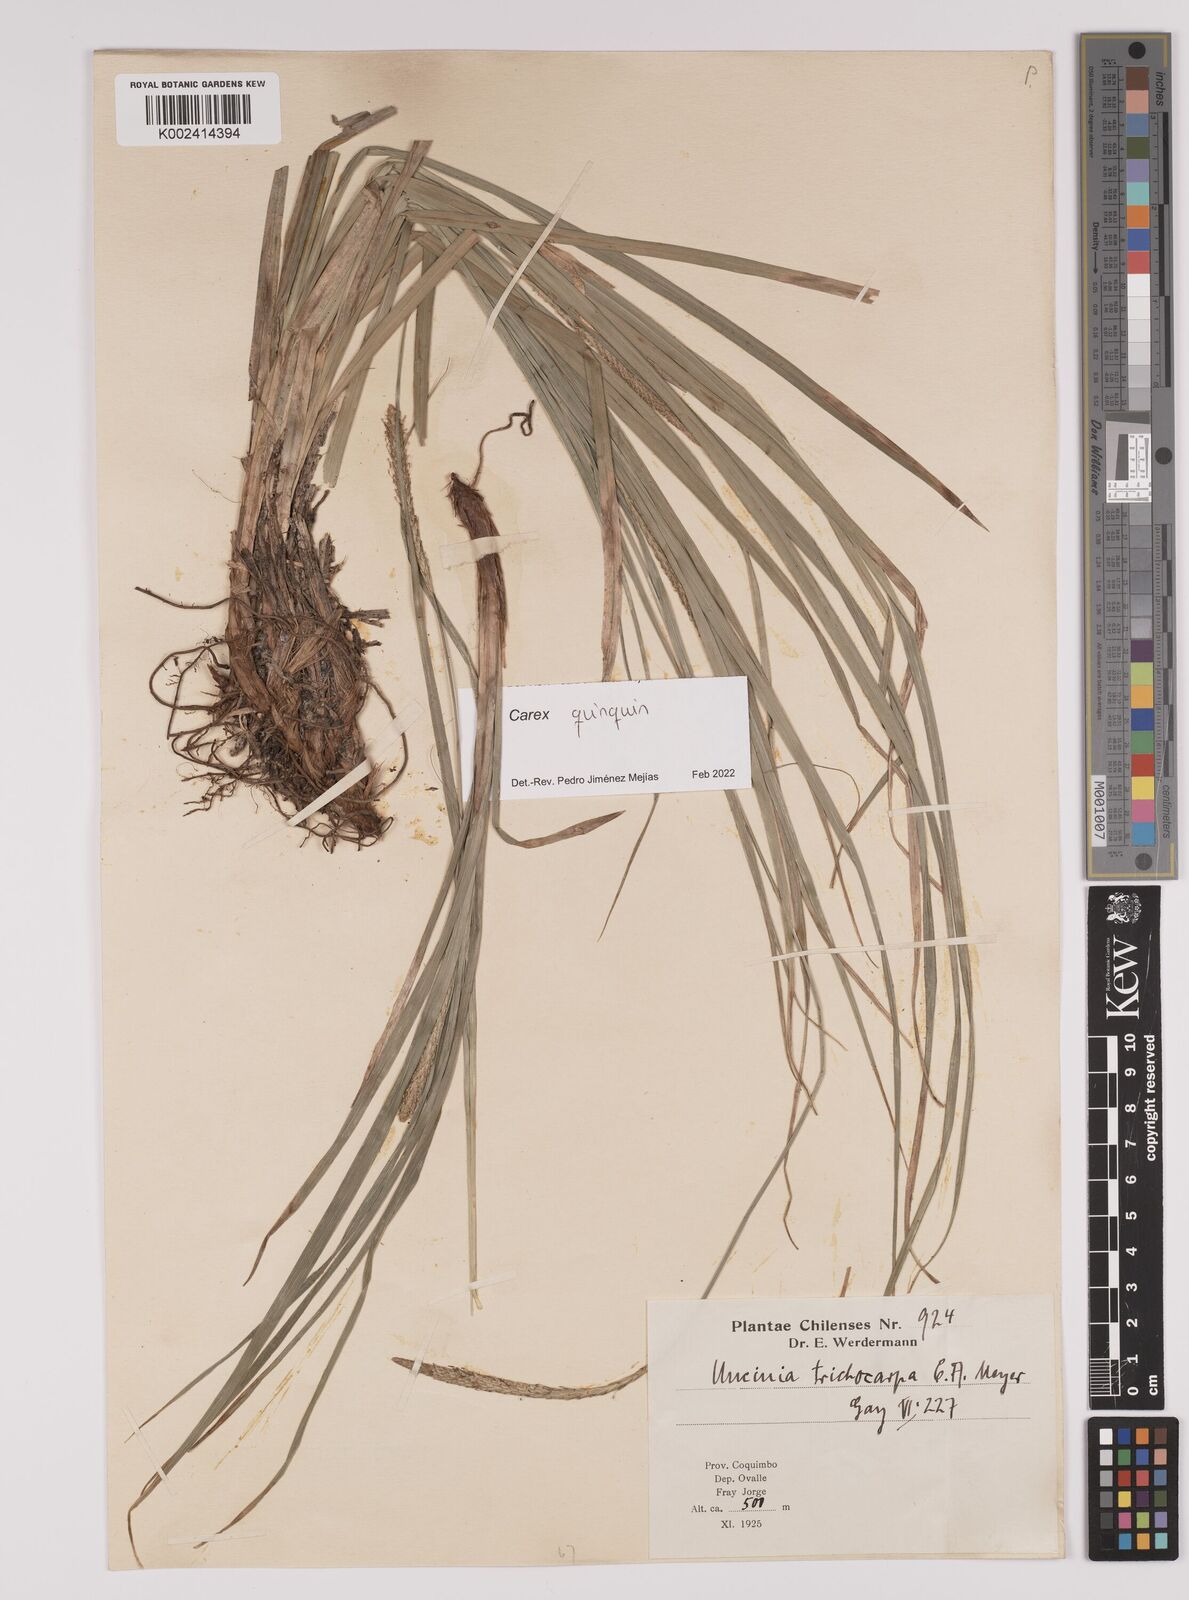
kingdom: Plantae
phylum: Tracheophyta
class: Liliopsida
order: Poales
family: Cyperaceae
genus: Carex
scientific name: Carex quinquin
